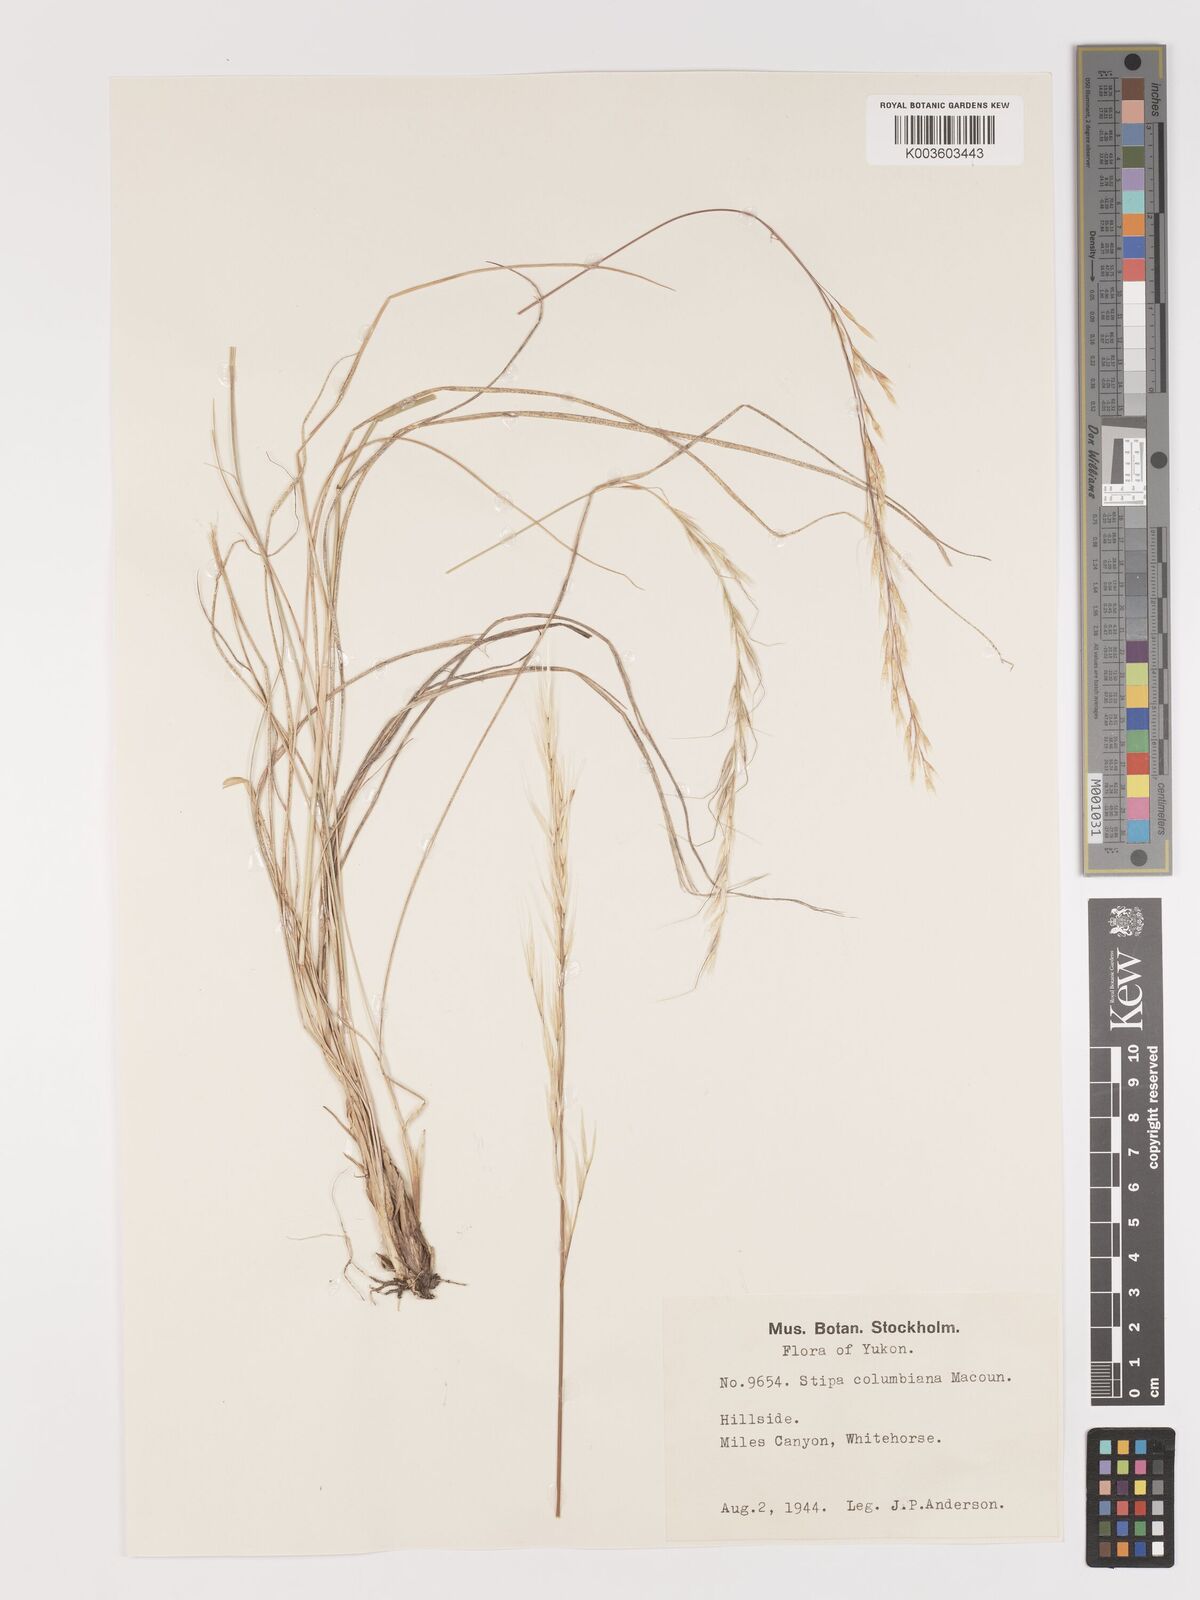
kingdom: Plantae
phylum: Tracheophyta
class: Liliopsida
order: Poales
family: Poaceae
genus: Eriocoma
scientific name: Eriocoma nelsonii
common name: Nelson's needlegrass
